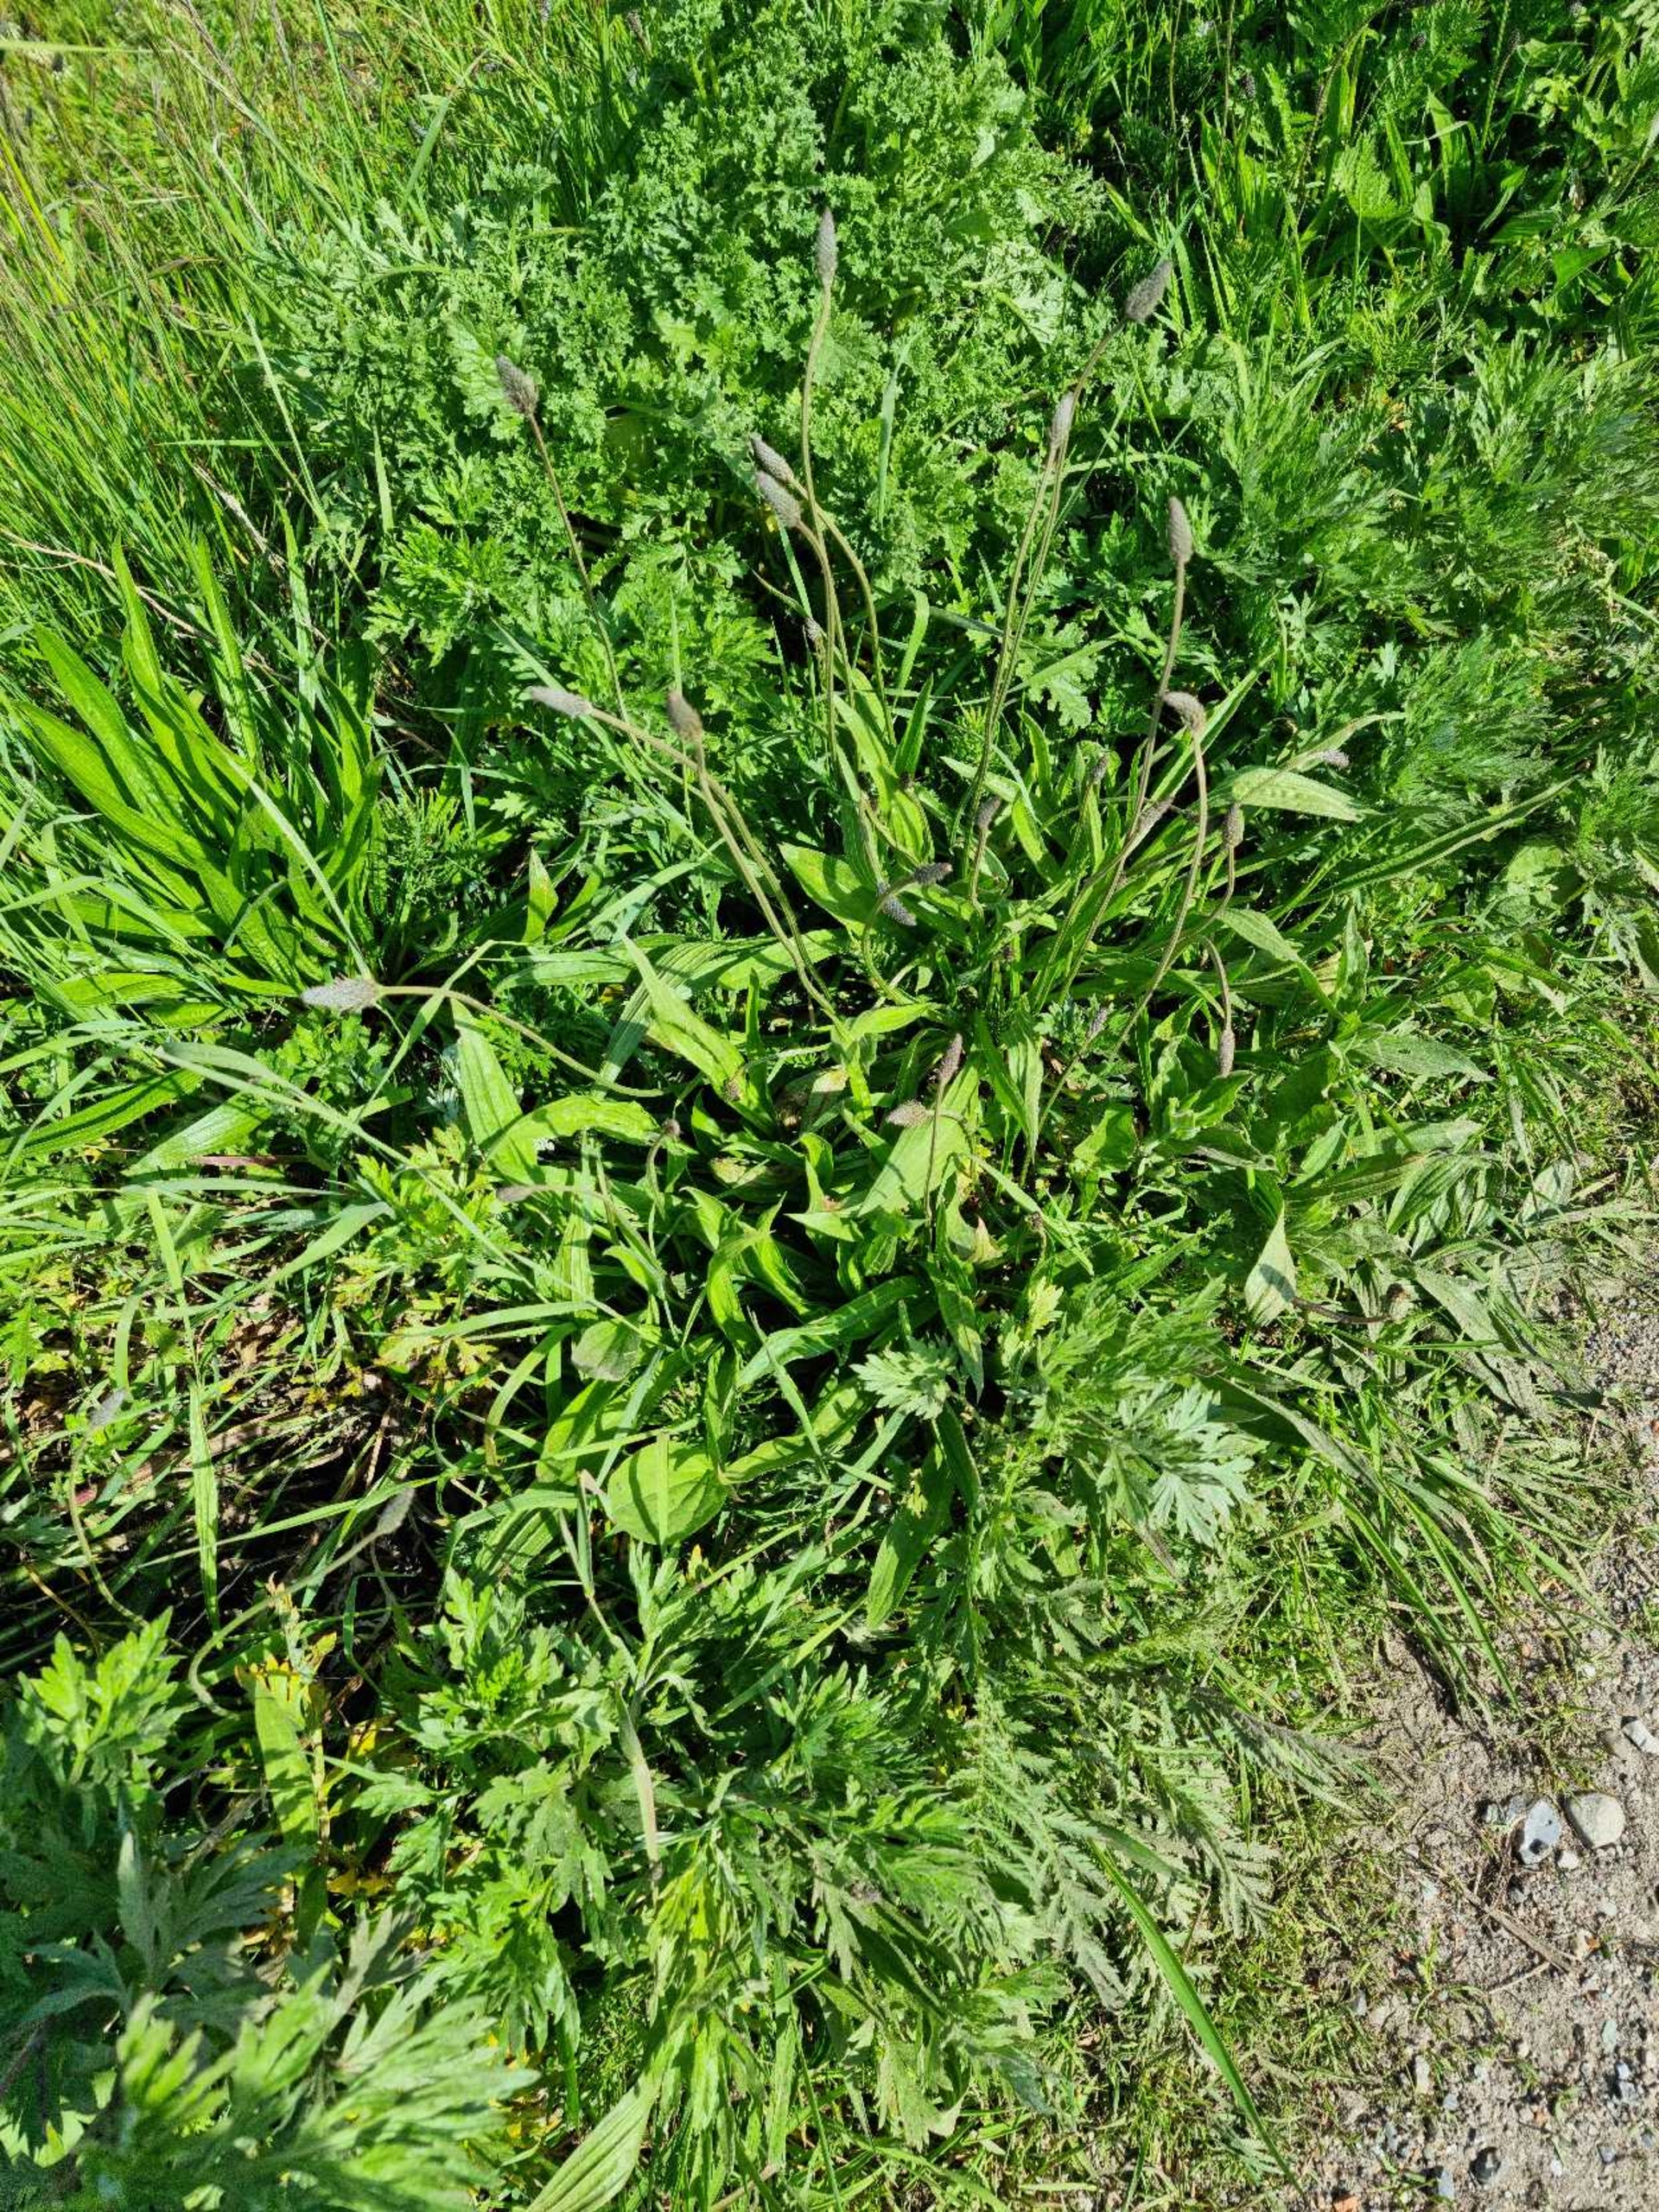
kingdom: Plantae
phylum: Tracheophyta
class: Magnoliopsida
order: Lamiales
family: Plantaginaceae
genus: Plantago
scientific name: Plantago lanceolata
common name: Lancet-vejbred
